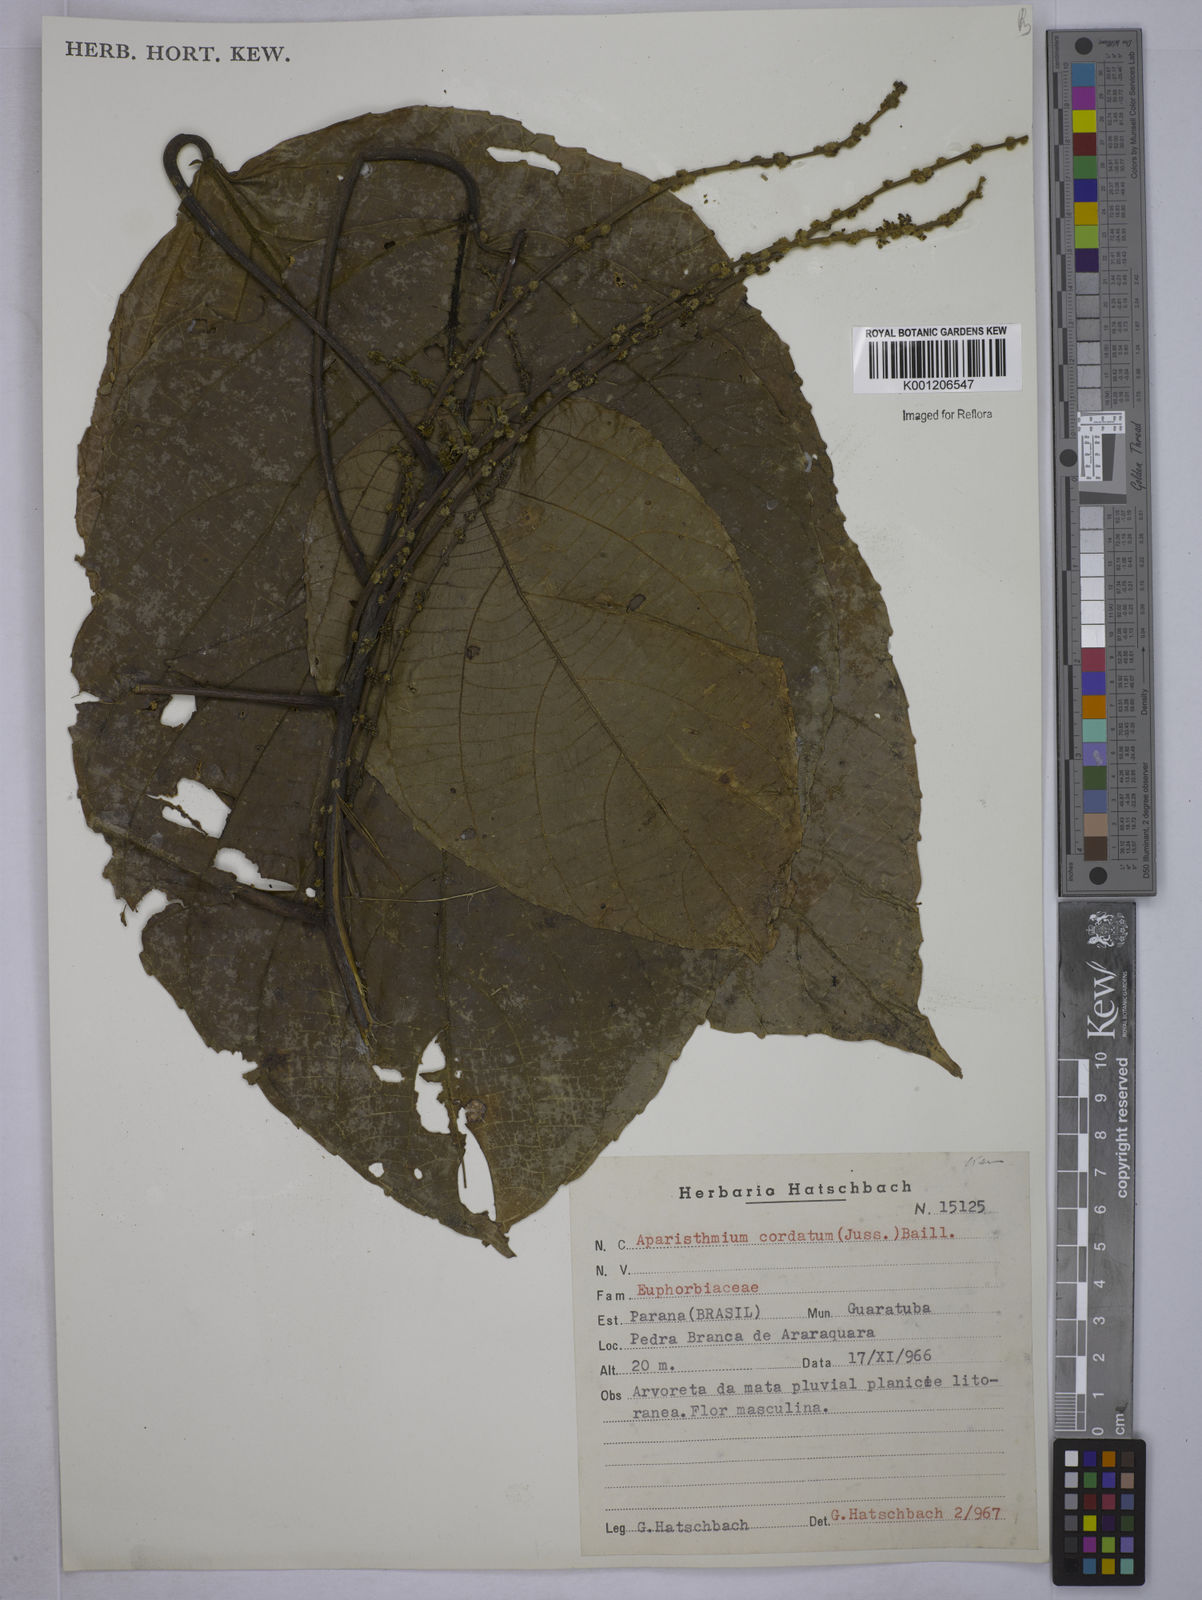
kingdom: Plantae
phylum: Tracheophyta
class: Magnoliopsida
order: Malpighiales
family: Euphorbiaceae
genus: Aparisthmium
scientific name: Aparisthmium cordatum
